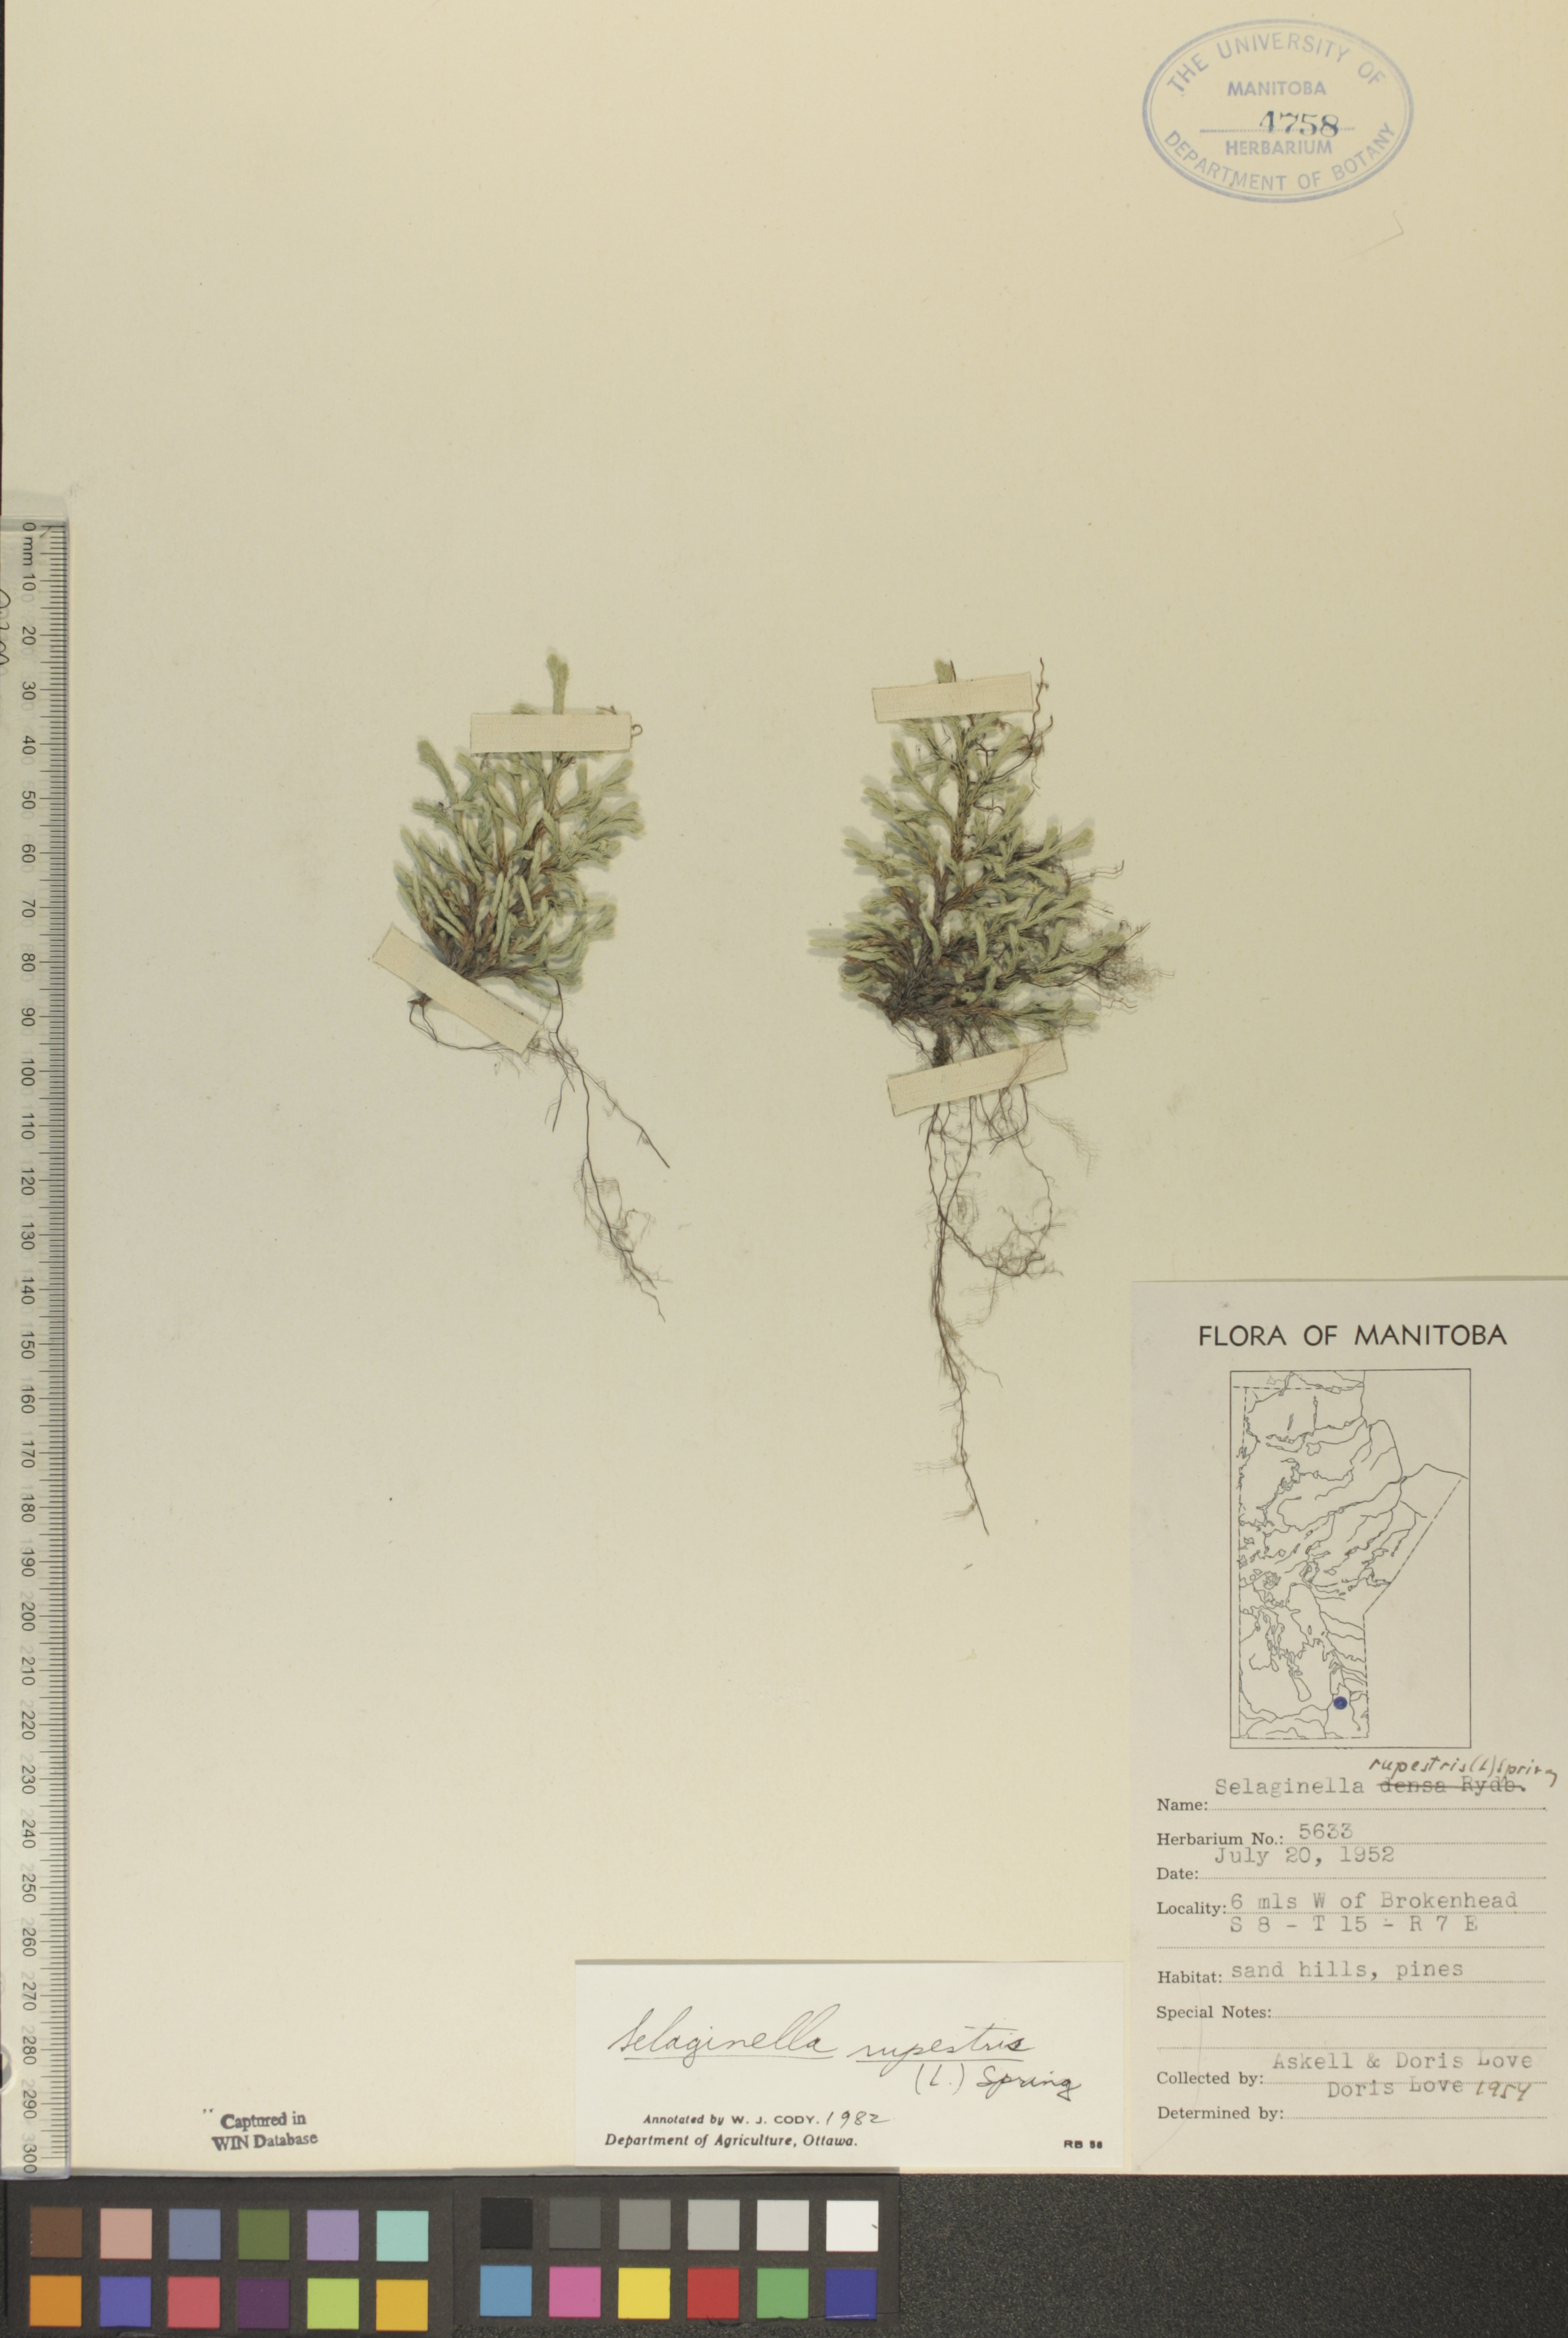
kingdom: Plantae
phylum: Tracheophyta
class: Lycopodiopsida
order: Selaginellales
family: Selaginellaceae
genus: Selaginella
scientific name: Selaginella rupestris
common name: Dwarf spikemoss
